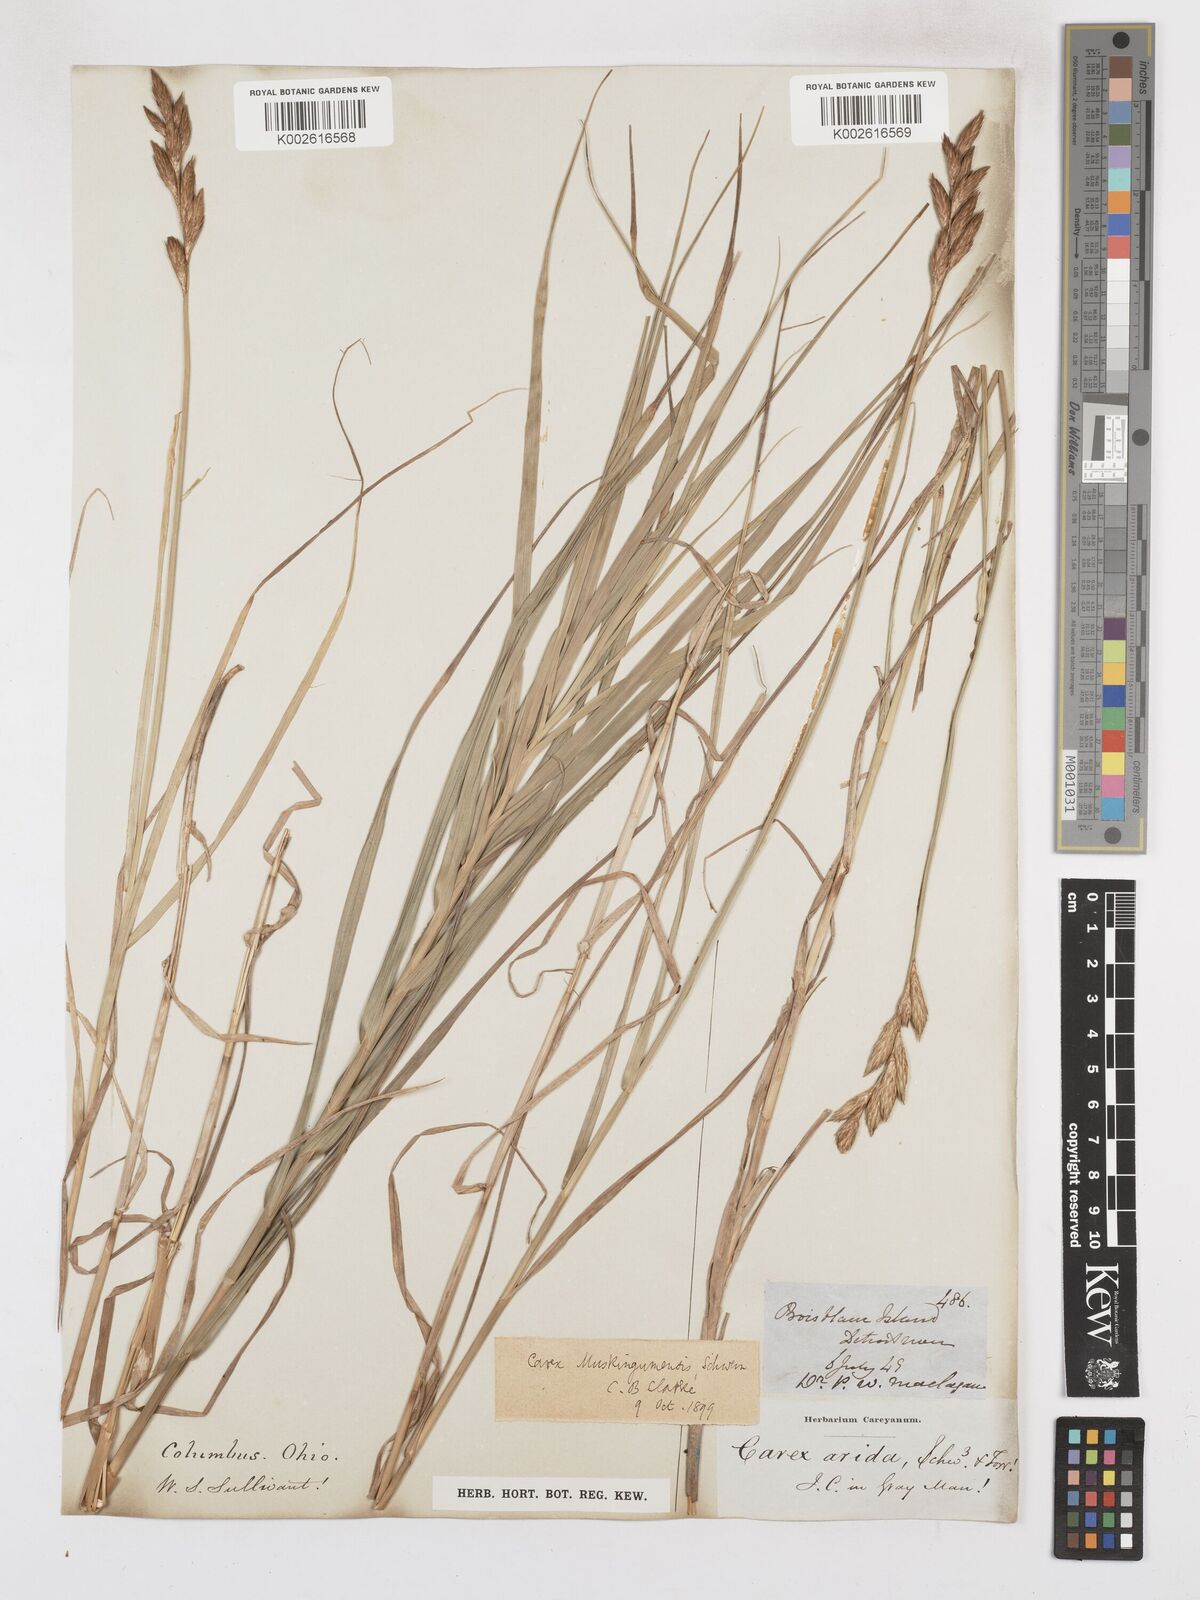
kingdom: Plantae
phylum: Tracheophyta
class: Liliopsida
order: Poales
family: Cyperaceae
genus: Carex
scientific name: Carex muskingumensis
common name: Muskingum sedge
